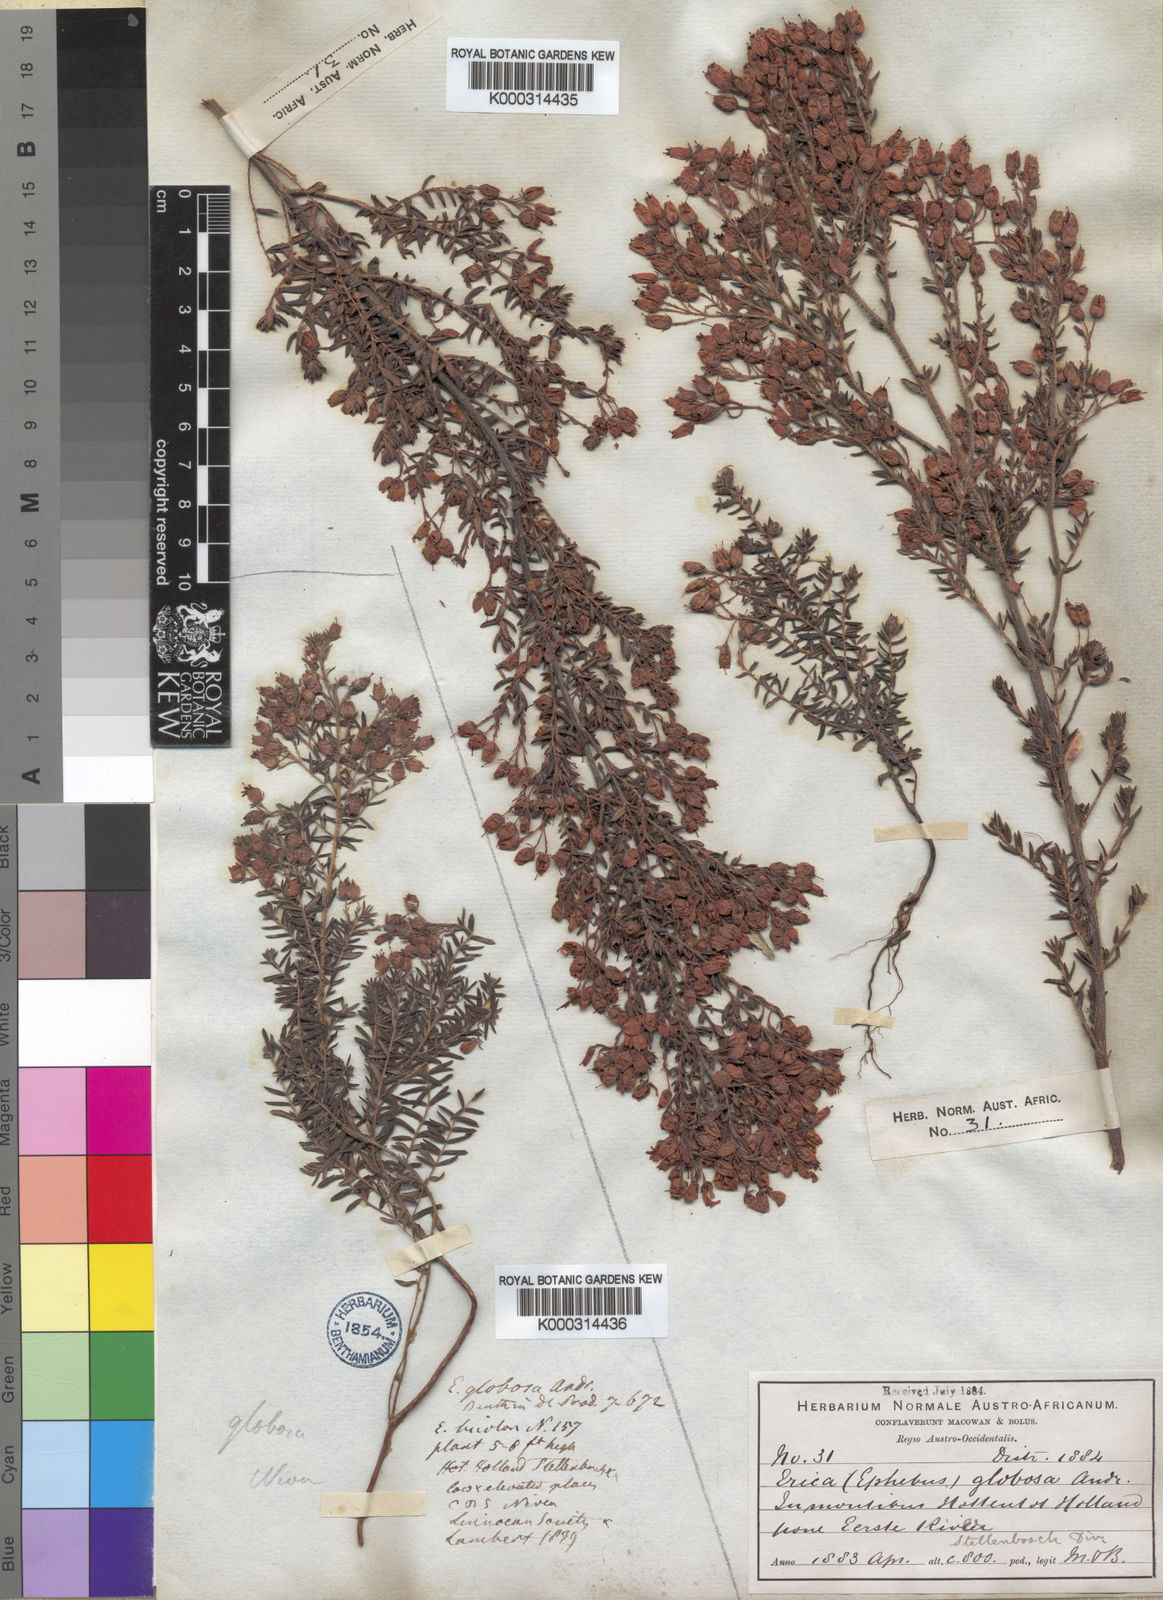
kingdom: Plantae
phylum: Tracheophyta
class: Magnoliopsida
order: Ericales
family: Ericaceae
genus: Erica
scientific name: Erica subterminalis
